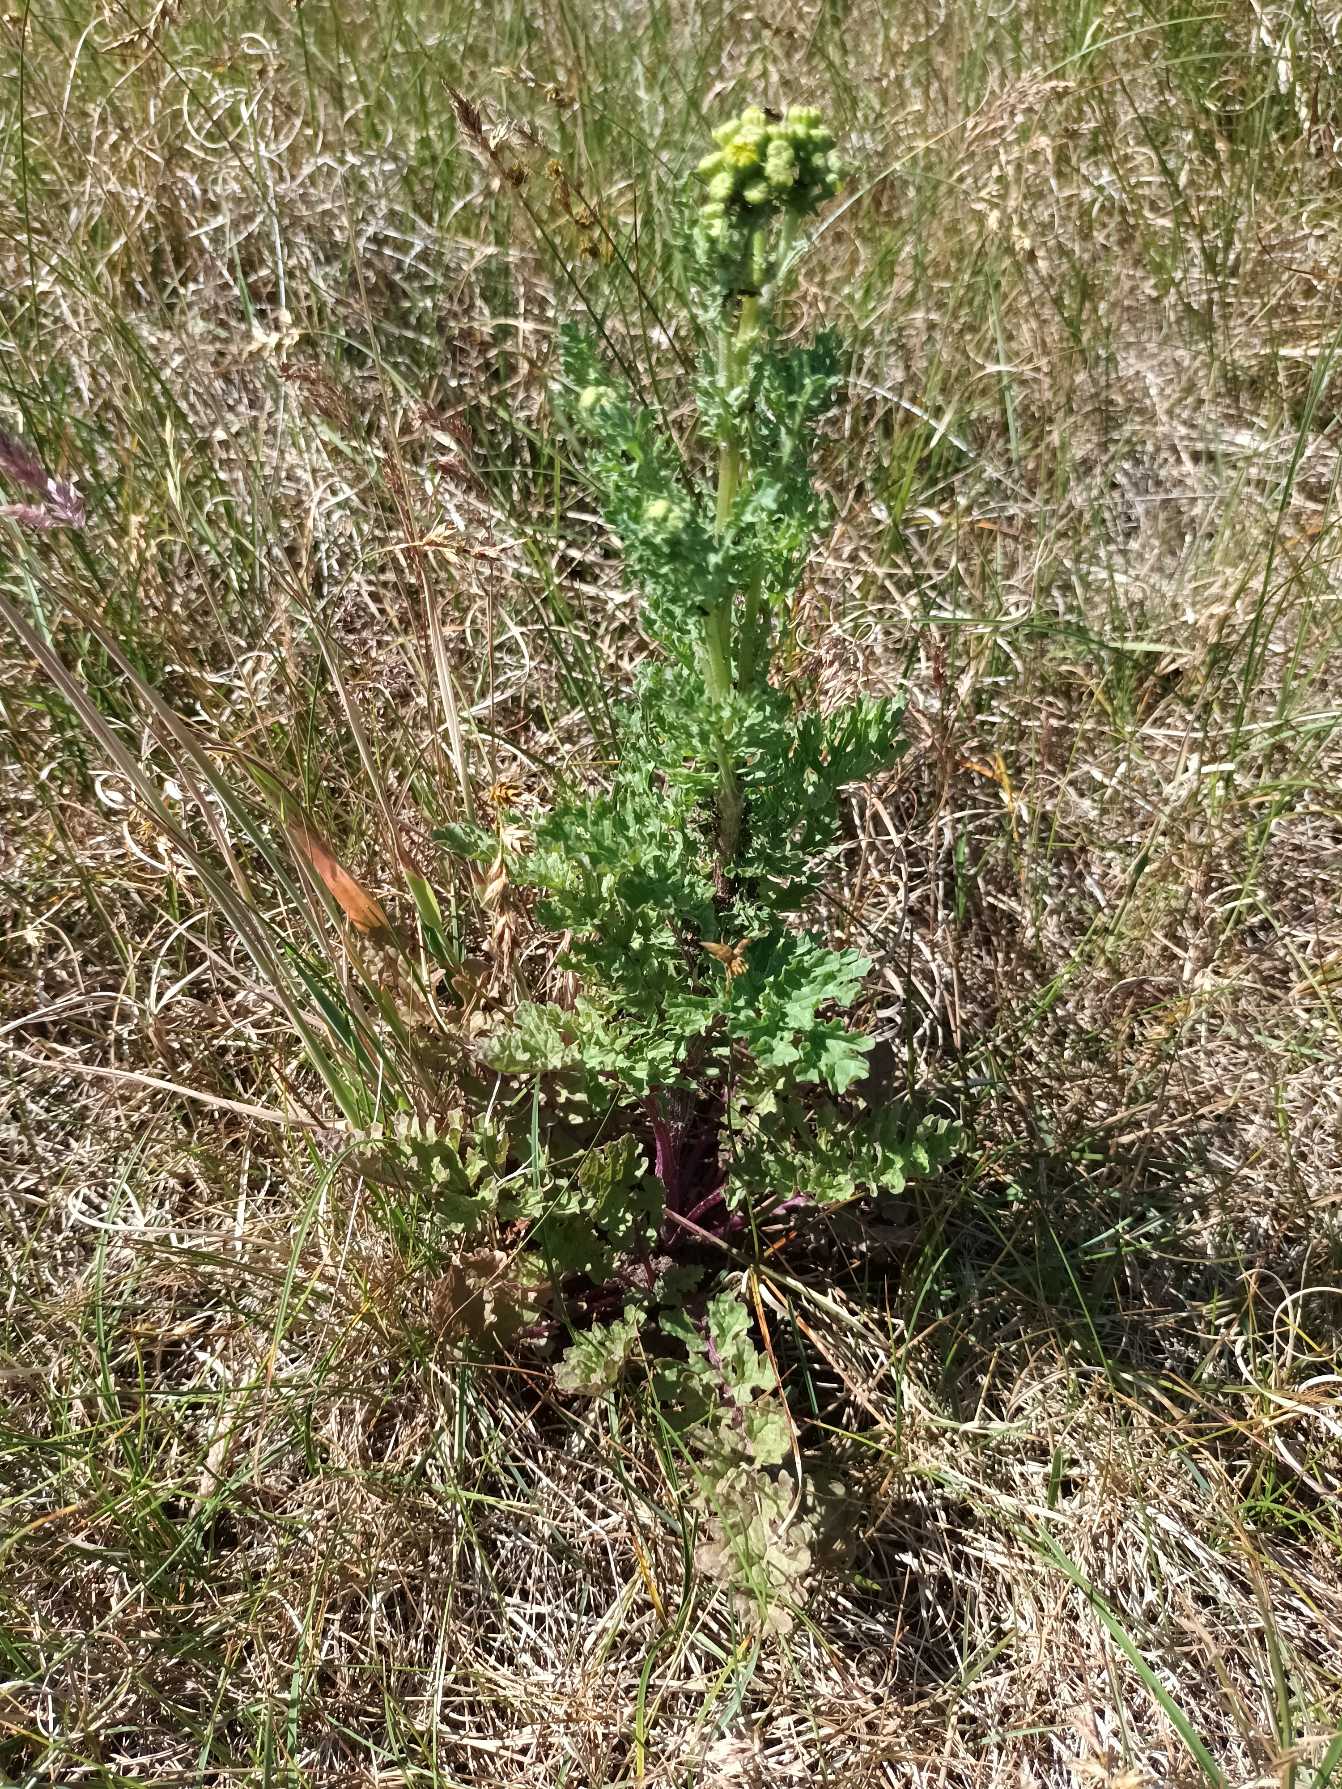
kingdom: Plantae
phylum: Tracheophyta
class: Magnoliopsida
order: Asterales
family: Asteraceae
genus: Jacobaea
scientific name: Jacobaea vulgaris
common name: Eng-brandbæger
